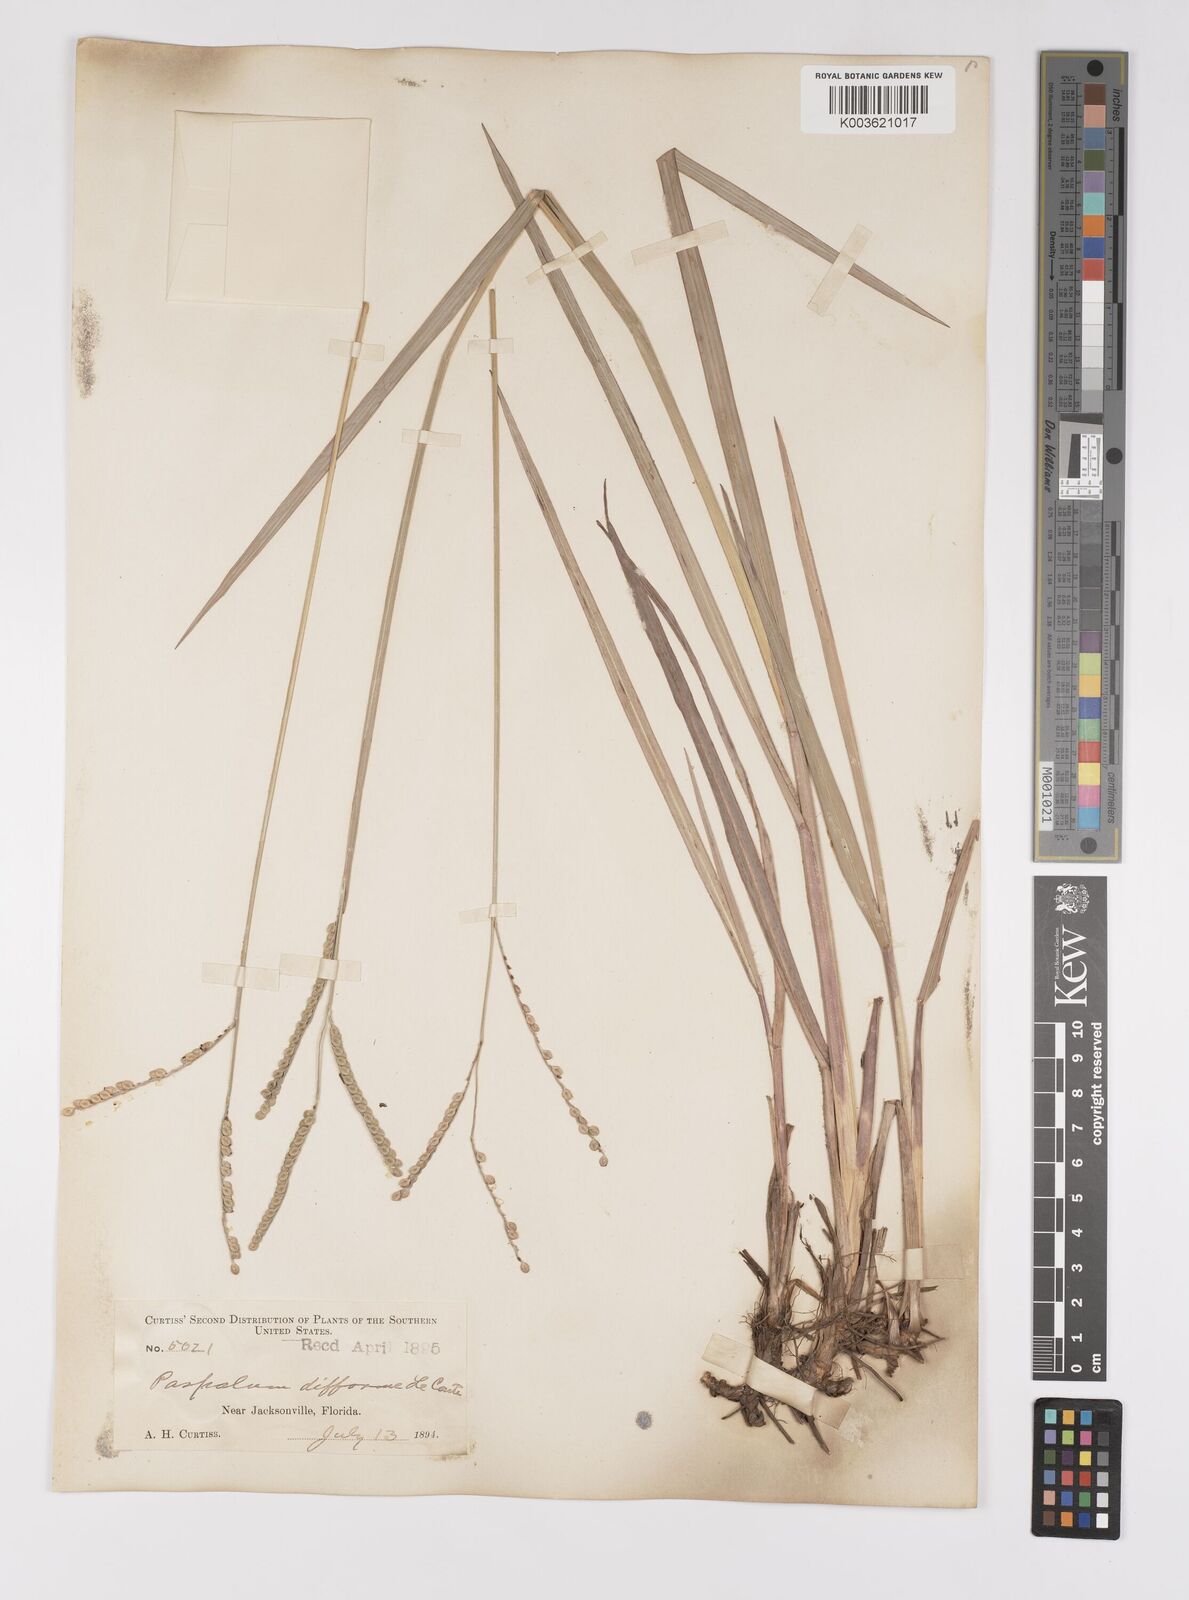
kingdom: Plantae
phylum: Tracheophyta
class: Liliopsida
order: Poales
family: Poaceae
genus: Paspalum
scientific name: Paspalum floridanum
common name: Florida paspalum
